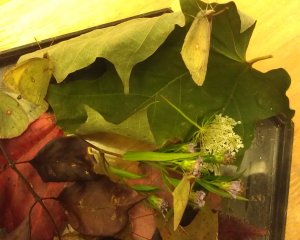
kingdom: Animalia
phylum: Arthropoda
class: Insecta
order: Lepidoptera
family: Pieridae
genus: Colias
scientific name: Colias philodice
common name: Clouded Sulphur
